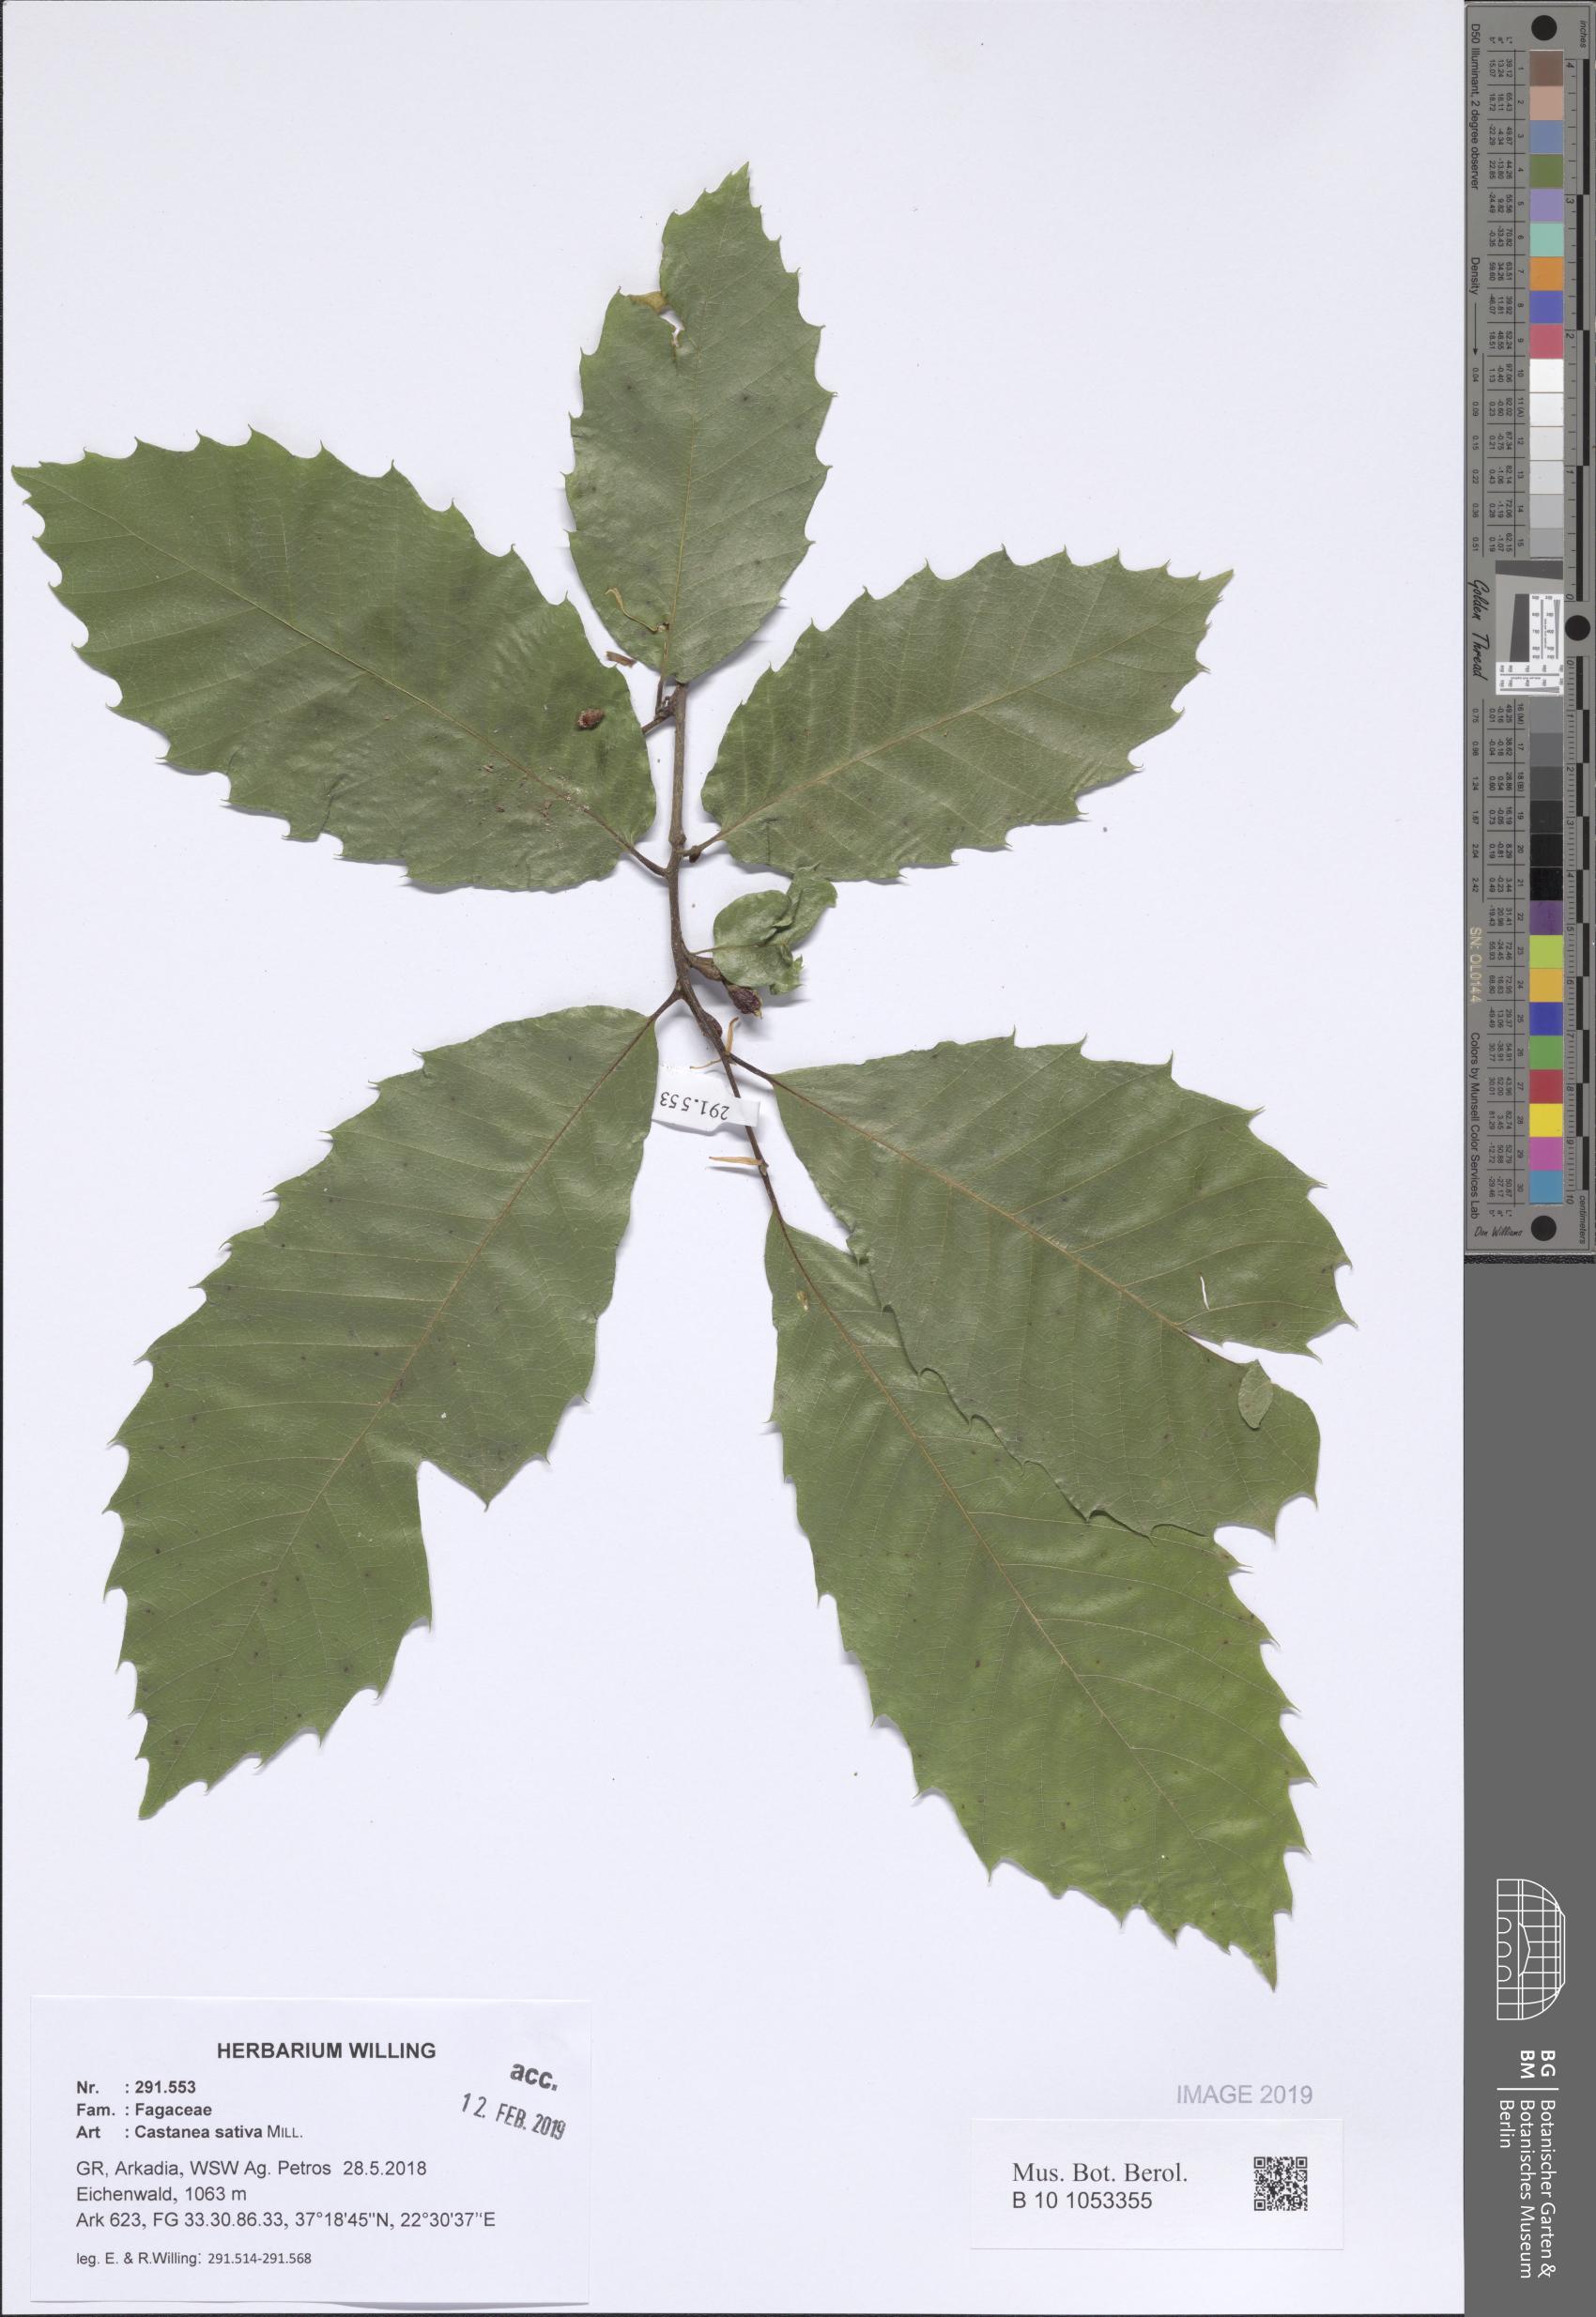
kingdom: Plantae
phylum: Tracheophyta
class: Magnoliopsida
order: Fagales
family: Fagaceae
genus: Castanea
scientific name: Castanea sativa
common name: Sweet chestnut
